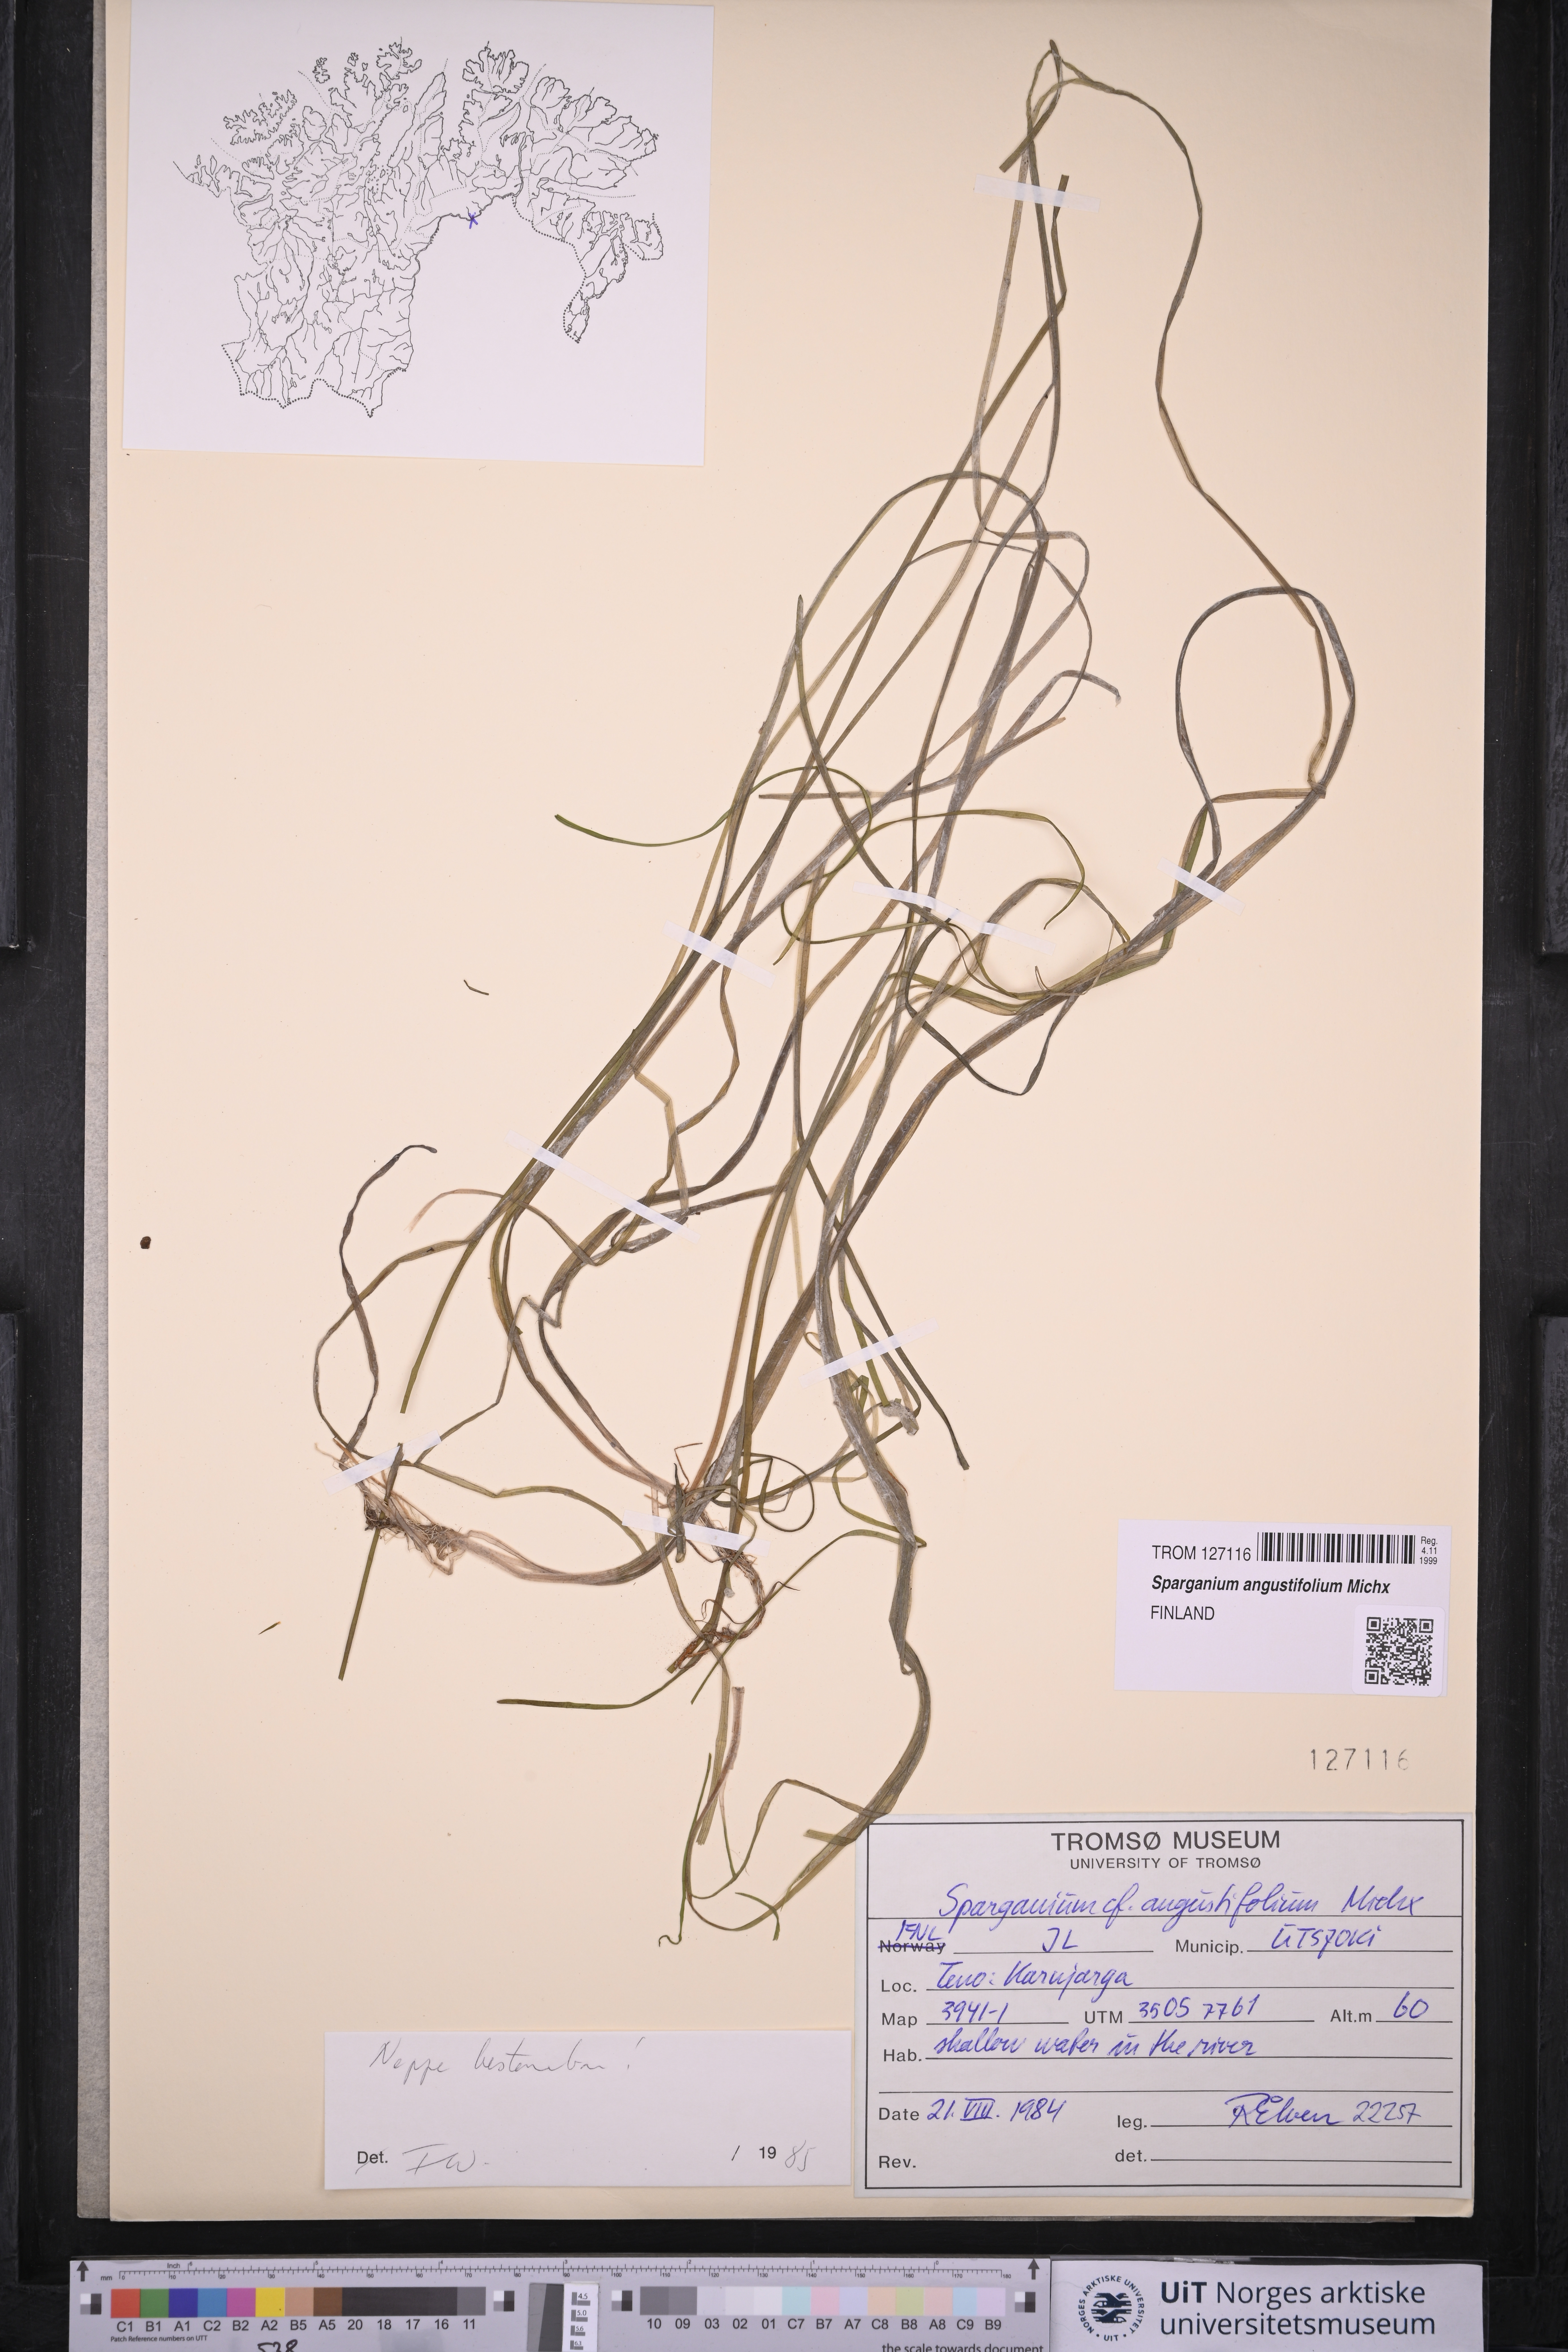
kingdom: Plantae
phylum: Tracheophyta
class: Liliopsida
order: Poales
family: Typhaceae
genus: Sparganium
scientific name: Sparganium angustifolium
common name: Floating bur-reed
